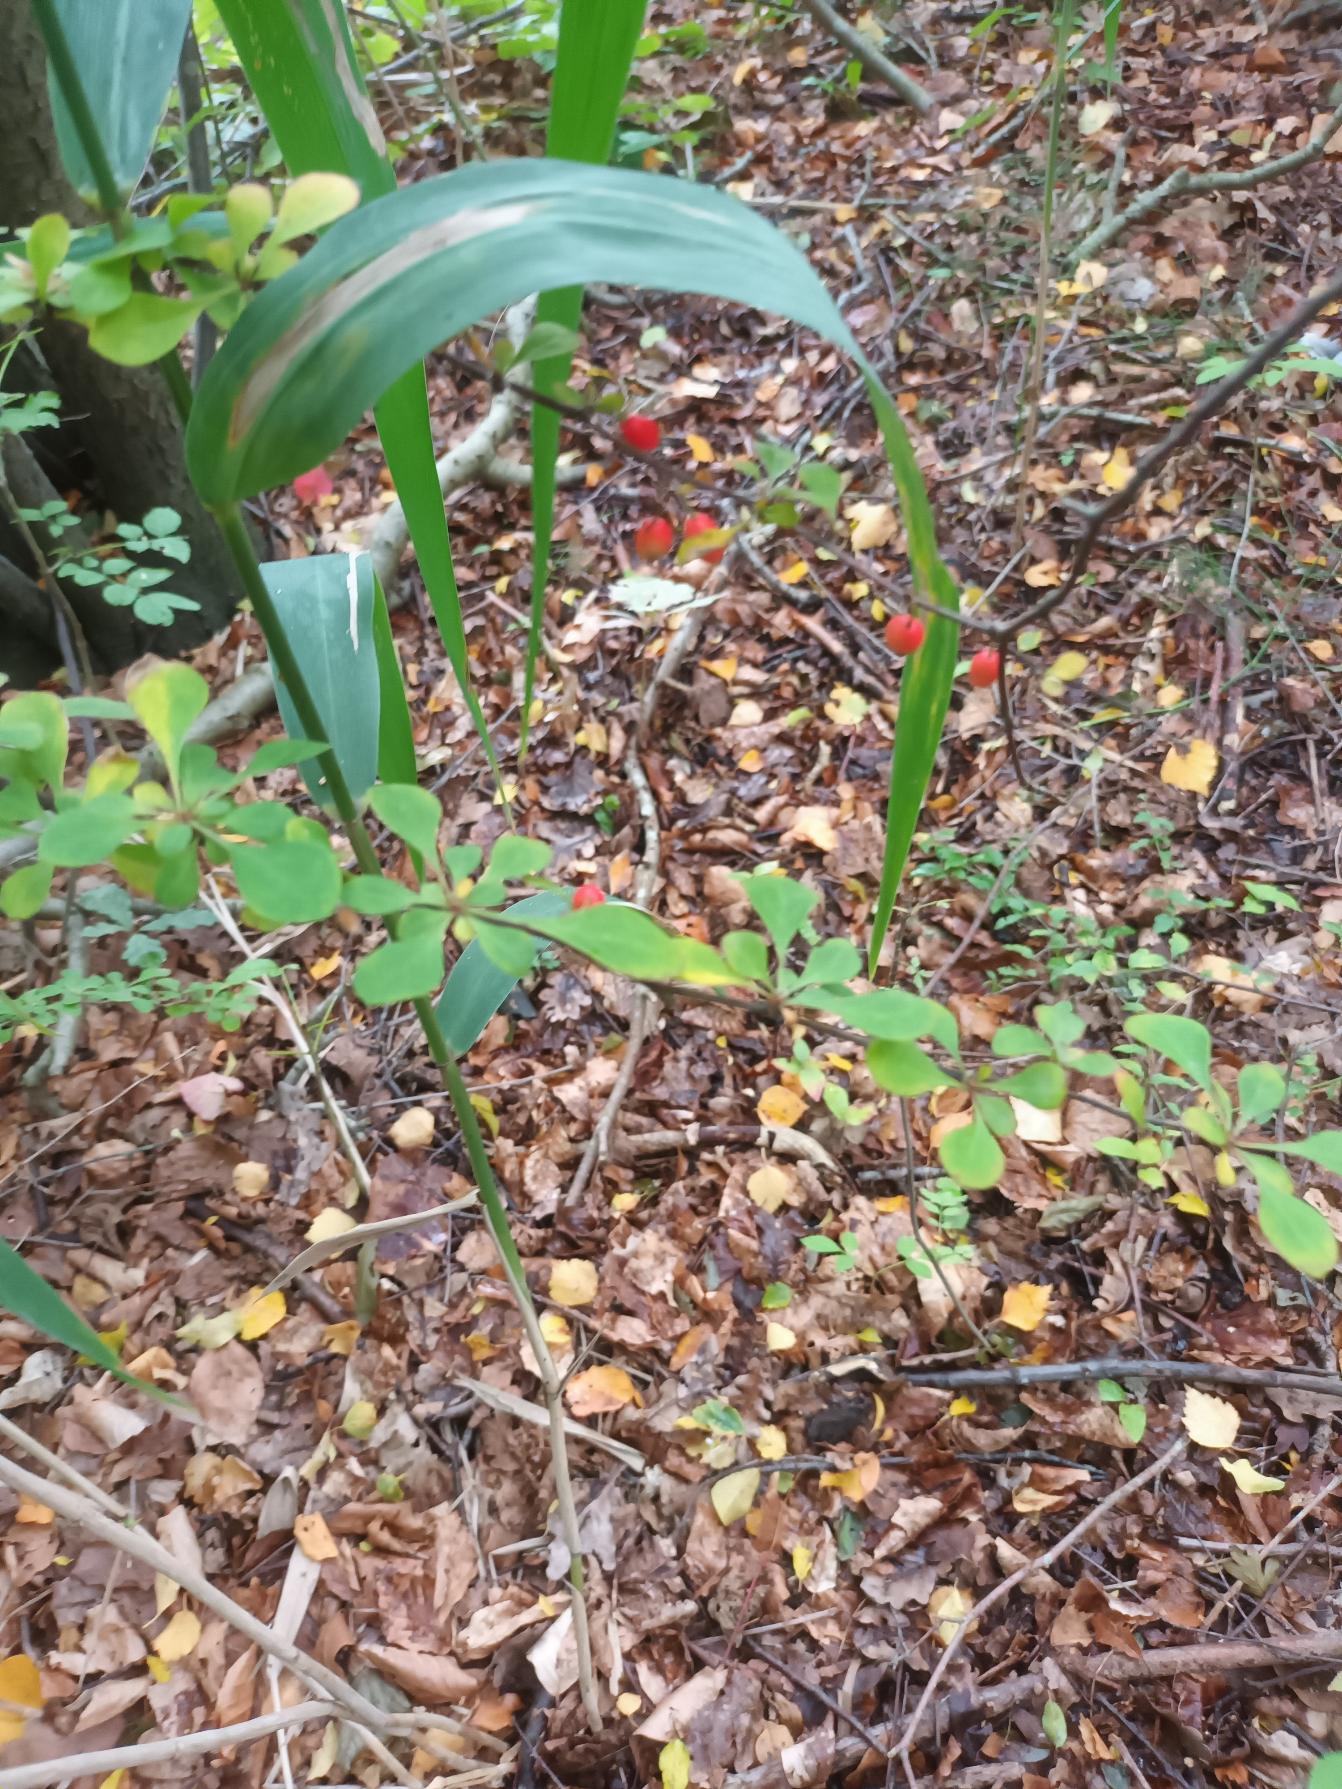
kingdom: Plantae
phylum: Tracheophyta
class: Magnoliopsida
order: Ranunculales
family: Berberidaceae
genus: Berberis
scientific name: Berberis thunbergii
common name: Hæk-berberis
